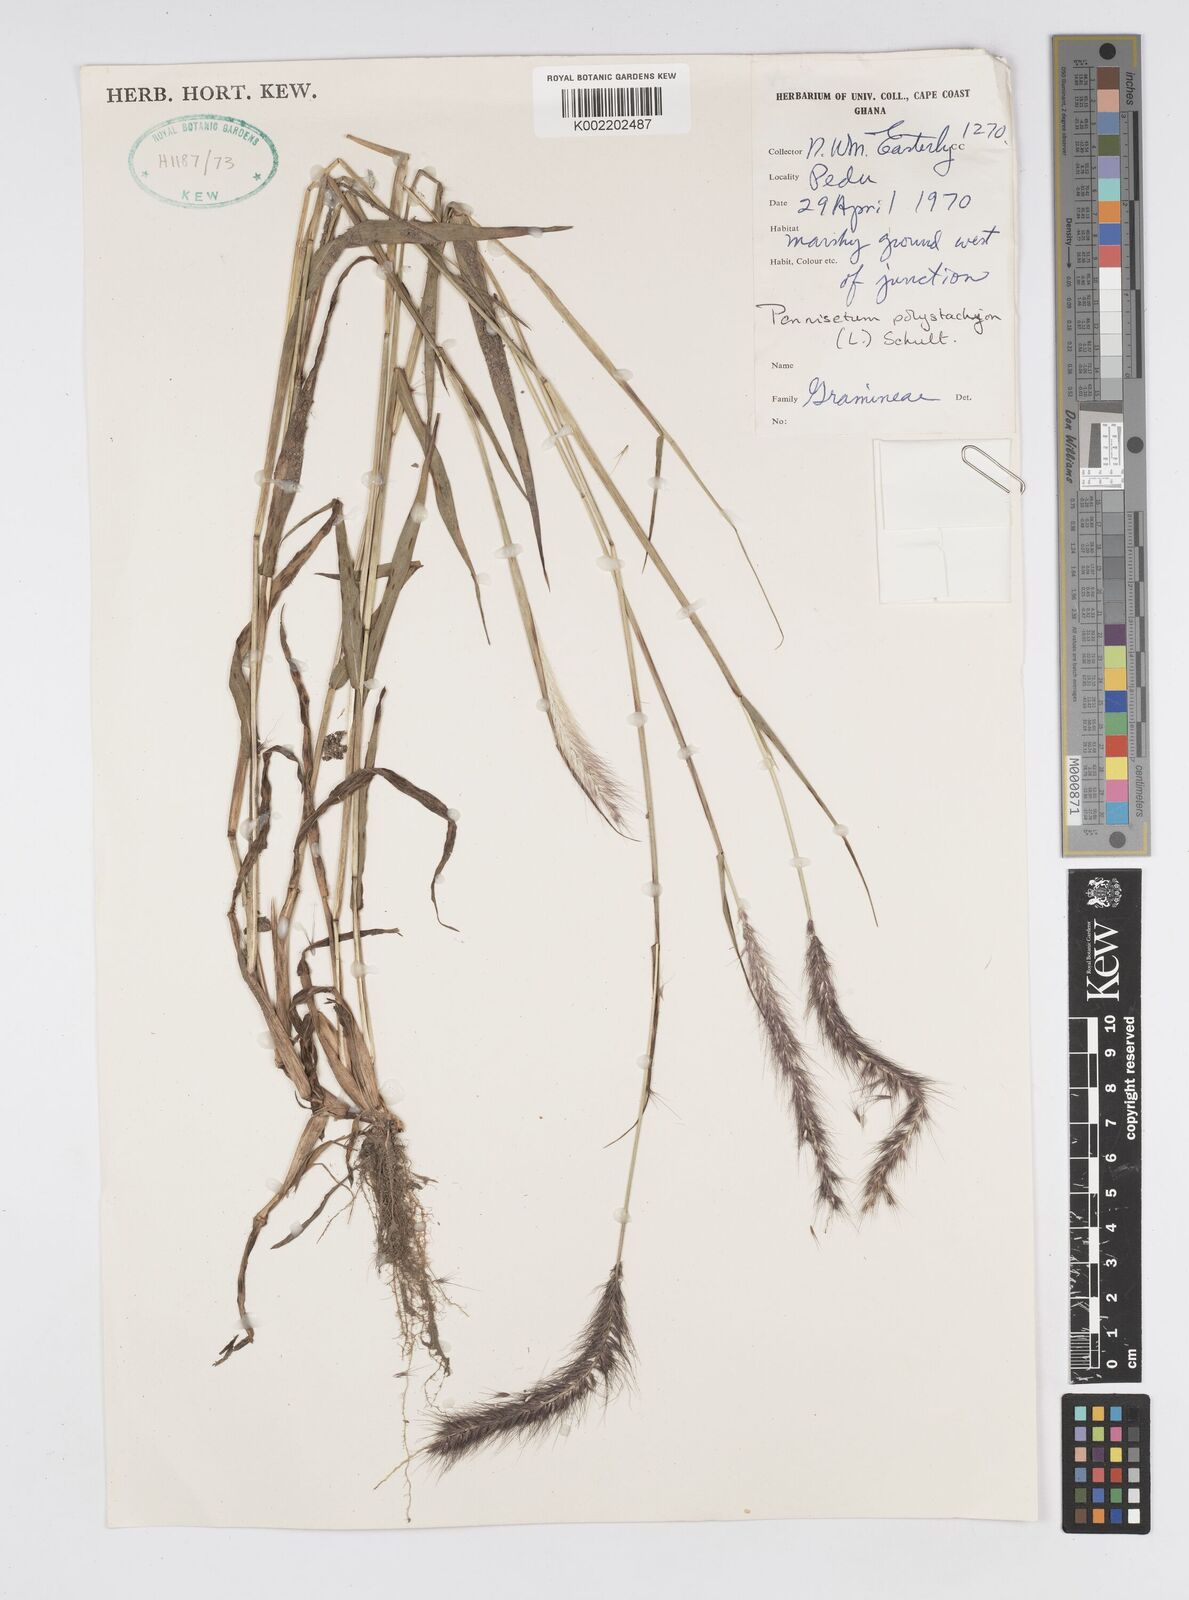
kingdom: Plantae
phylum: Tracheophyta
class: Liliopsida
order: Poales
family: Poaceae
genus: Setaria
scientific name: Setaria parviflora
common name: Knotroot bristle-grass
